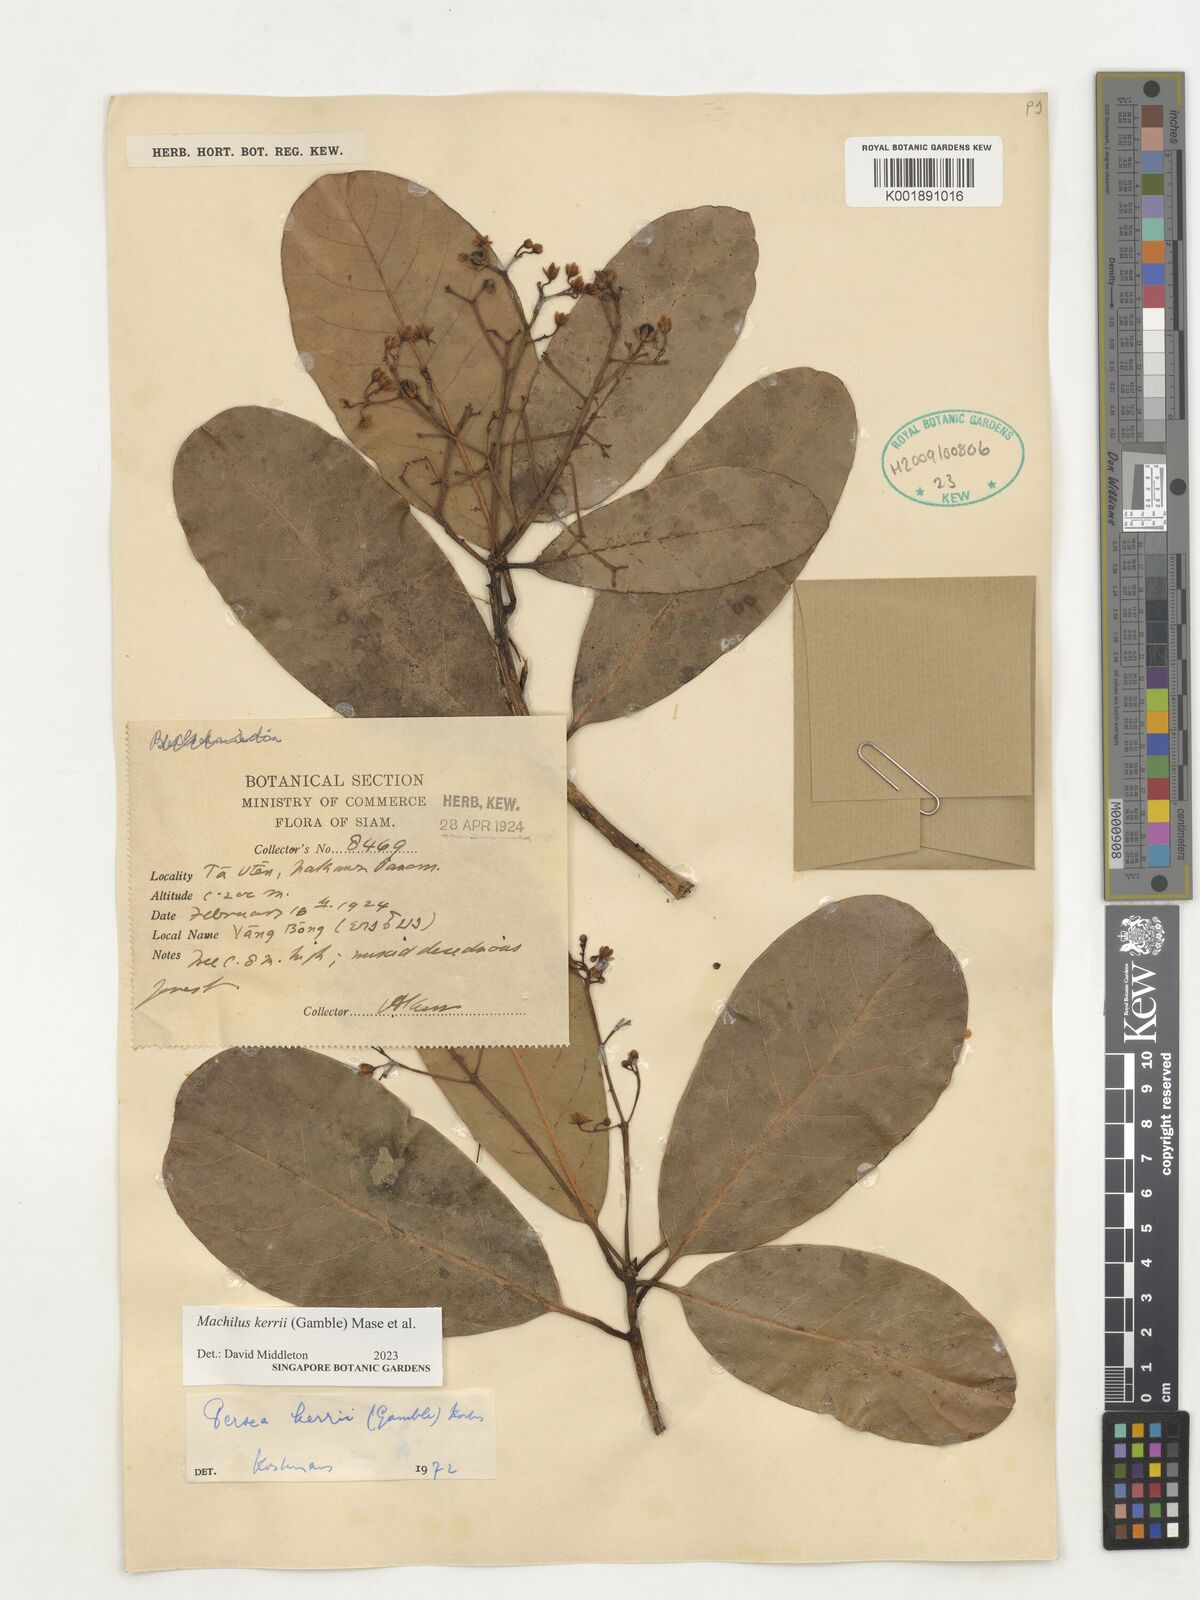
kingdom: Plantae
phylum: Tracheophyta
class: Magnoliopsida
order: Laurales
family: Lauraceae
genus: Machilus
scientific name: Machilus
